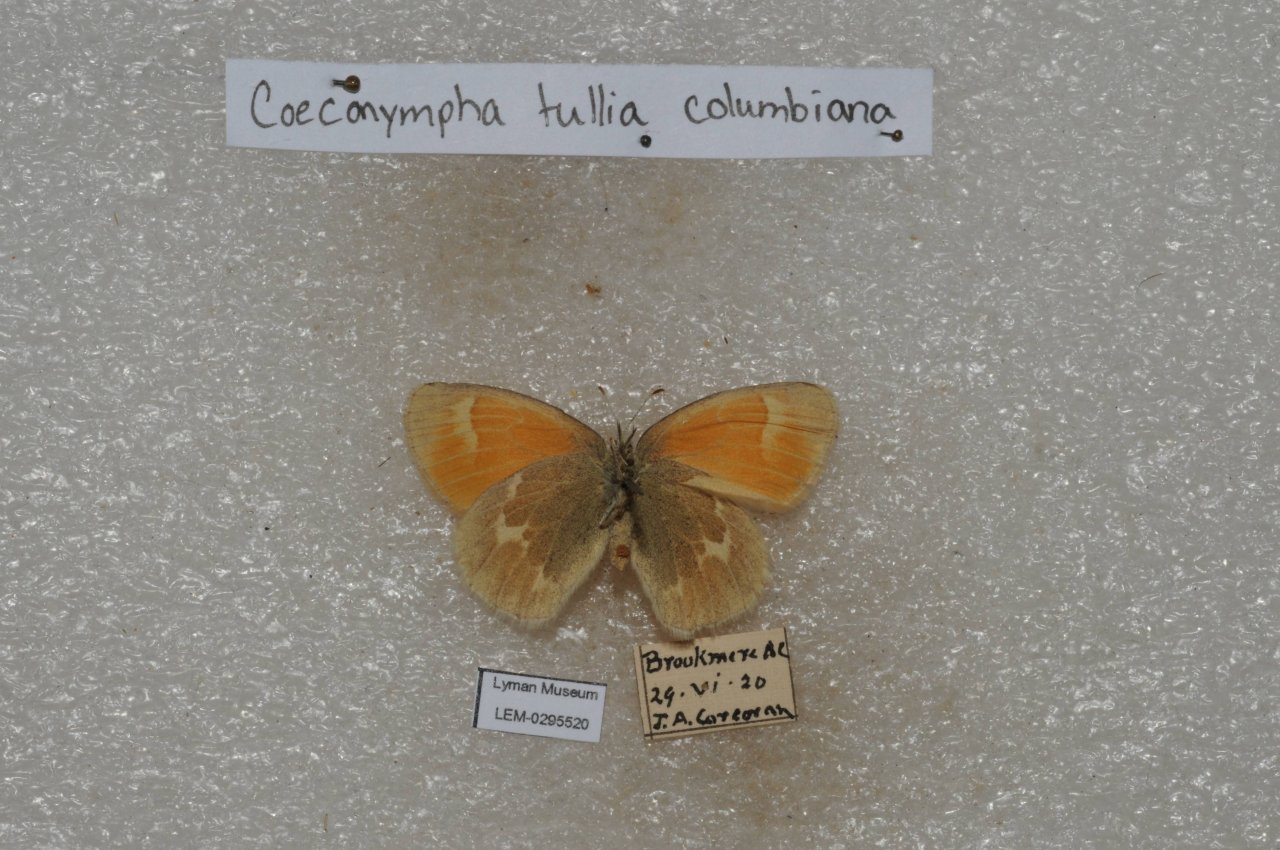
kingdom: Animalia
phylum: Arthropoda
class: Insecta
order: Lepidoptera
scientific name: Lepidoptera
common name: Butterflies
